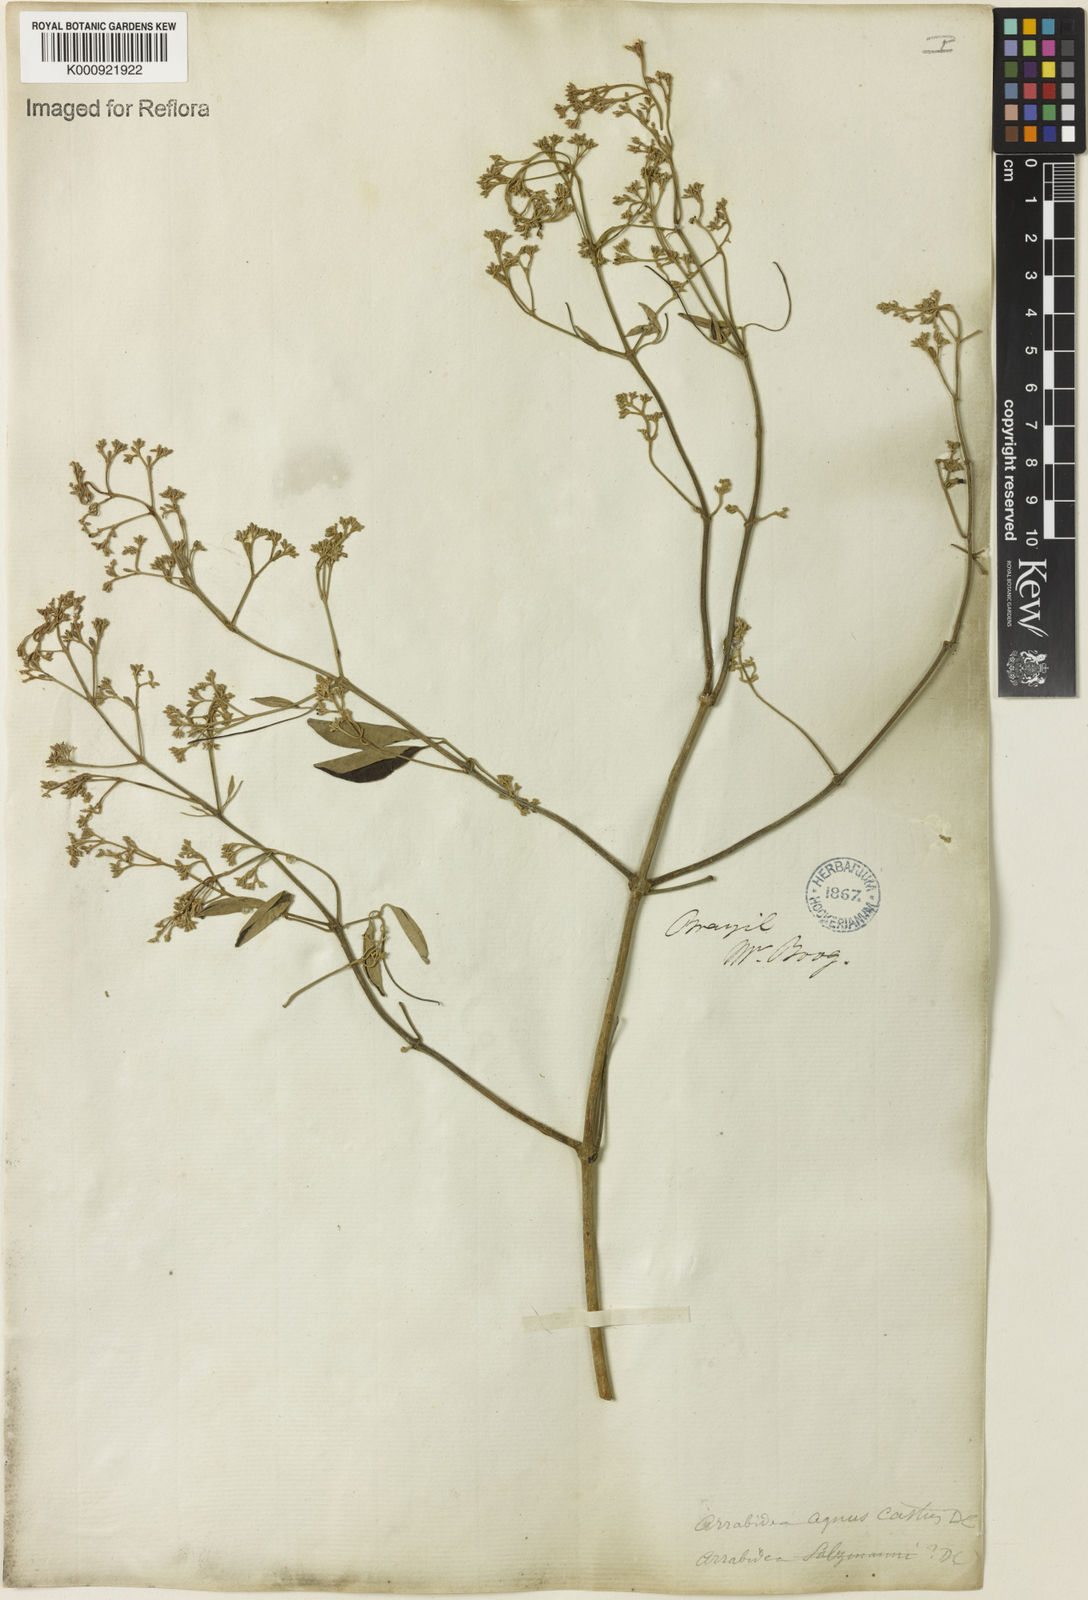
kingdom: Plantae
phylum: Tracheophyta
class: Magnoliopsida
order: Rosales
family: Rhamnaceae
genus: Arrabidaea
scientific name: Arrabidaea
